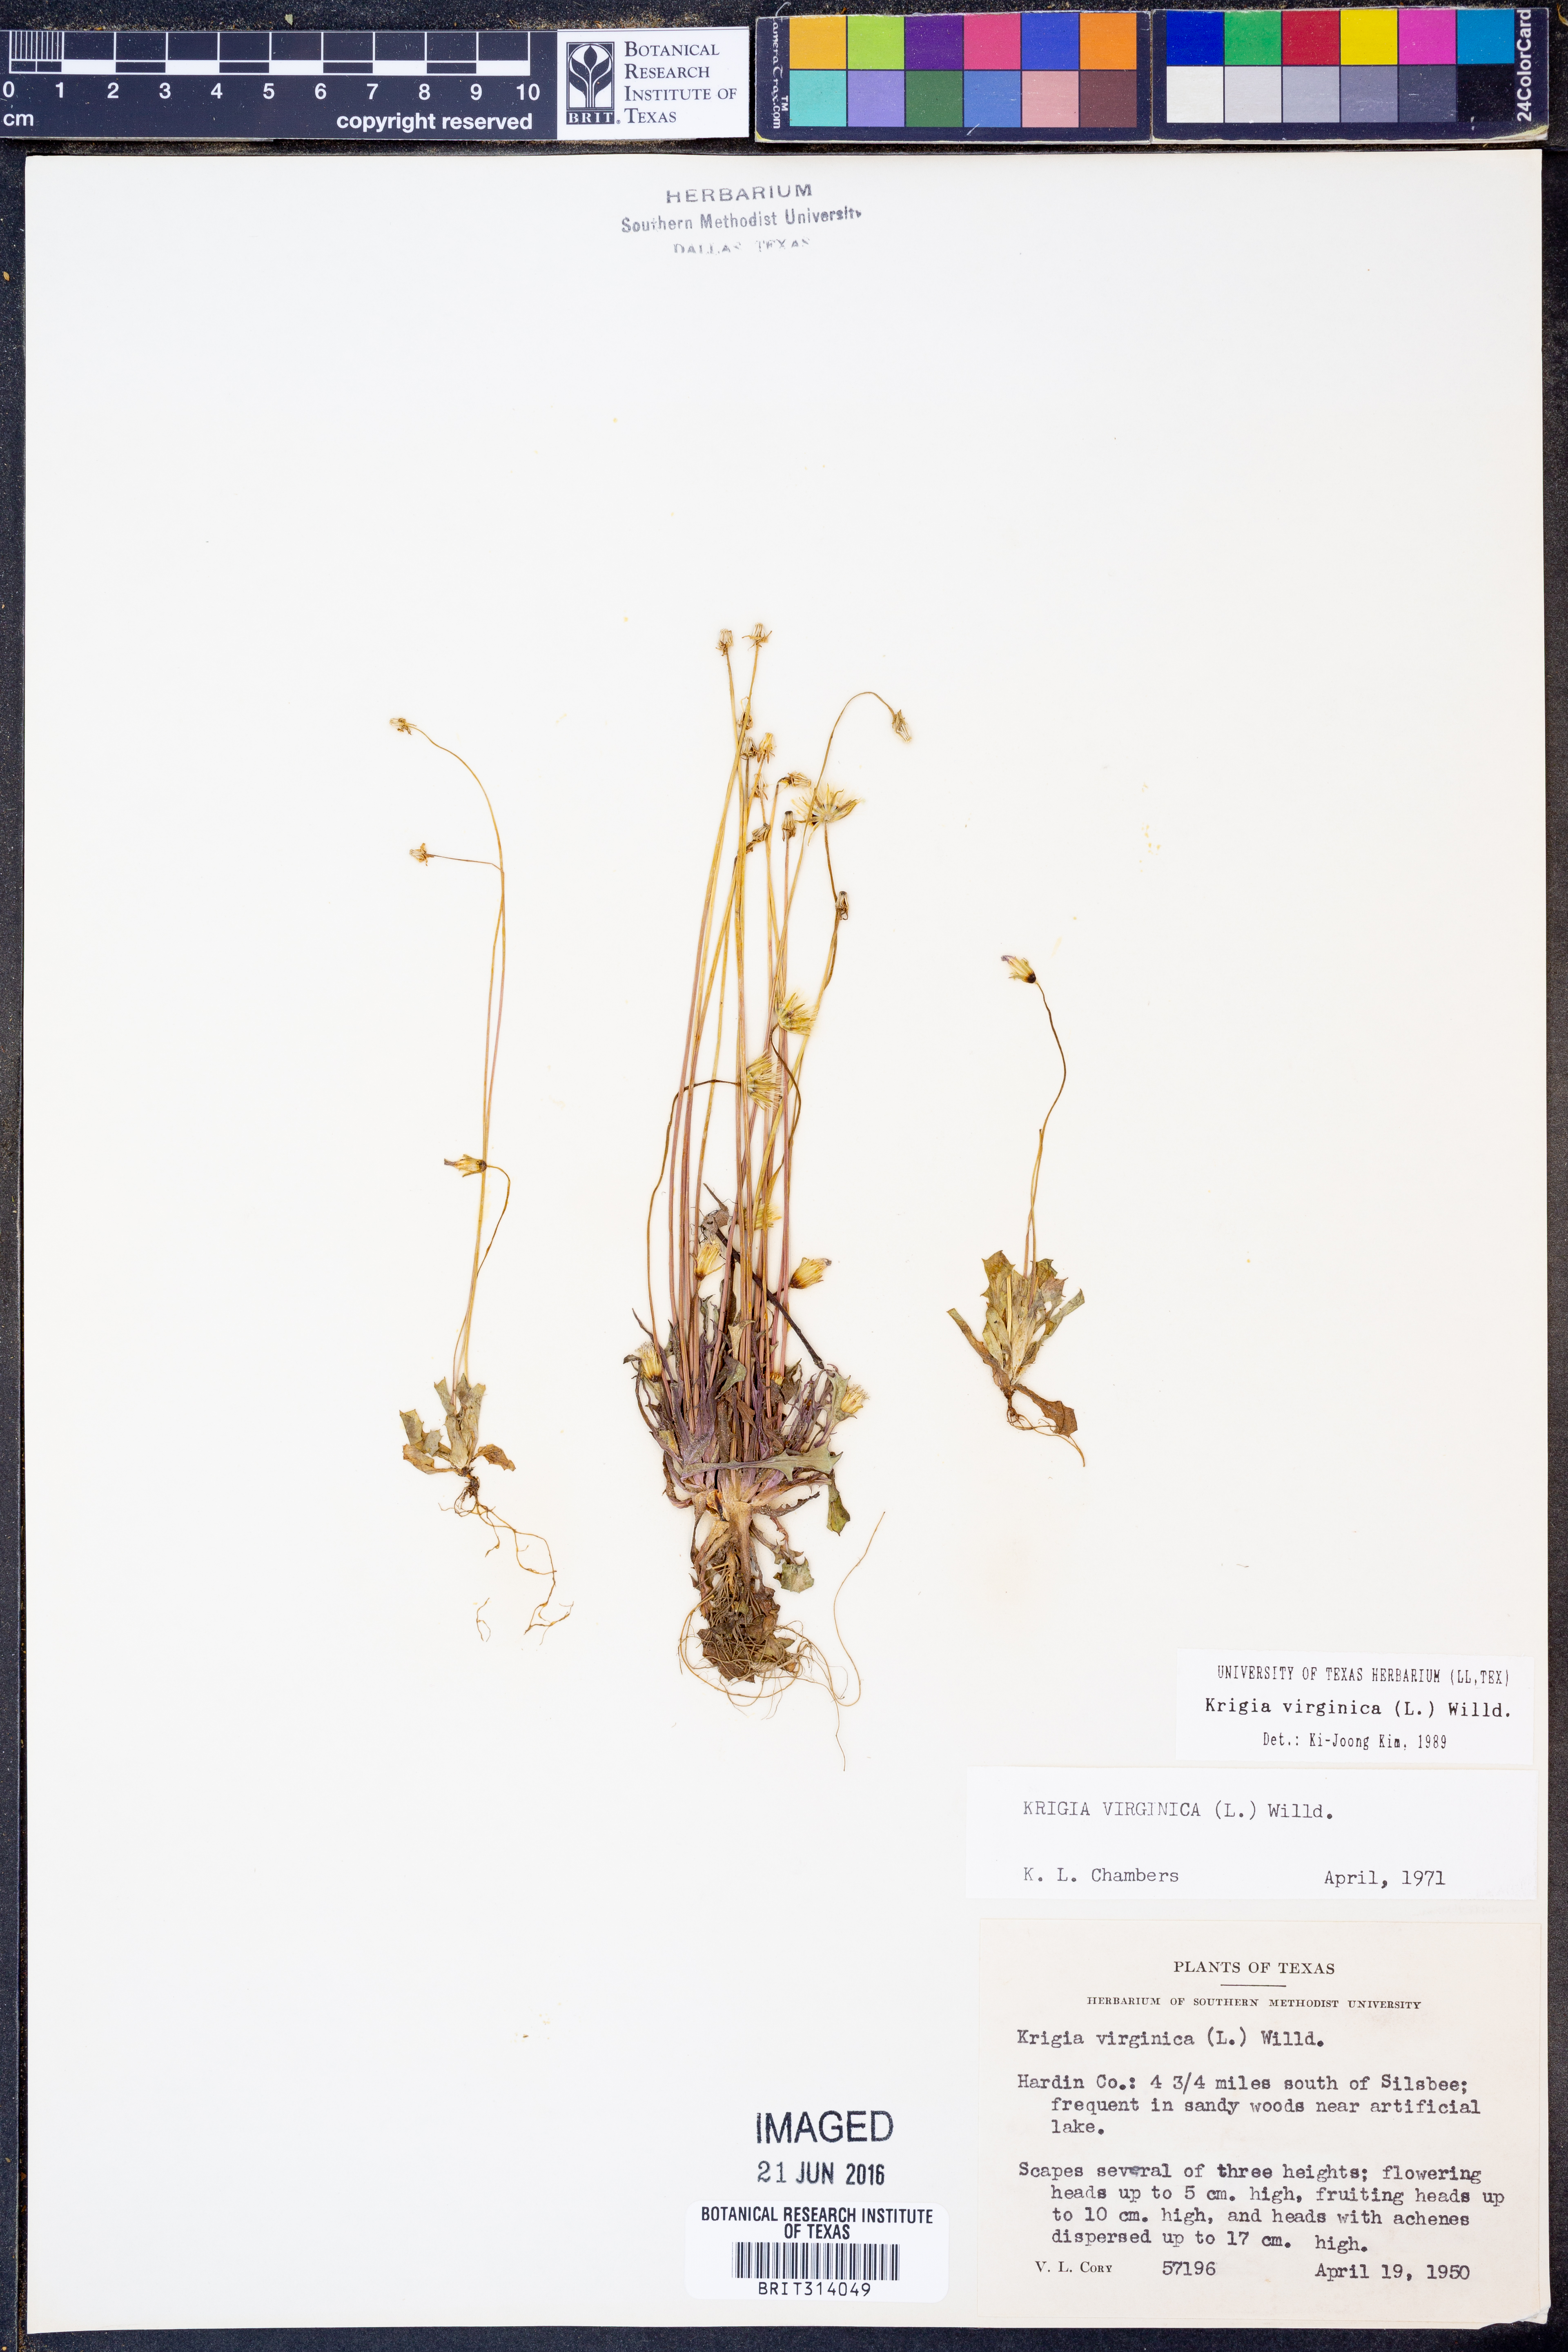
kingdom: Plantae
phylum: Tracheophyta
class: Magnoliopsida
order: Asterales
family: Asteraceae
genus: Krigia
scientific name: Krigia virginica
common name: Virginia dwarf-dandelion
